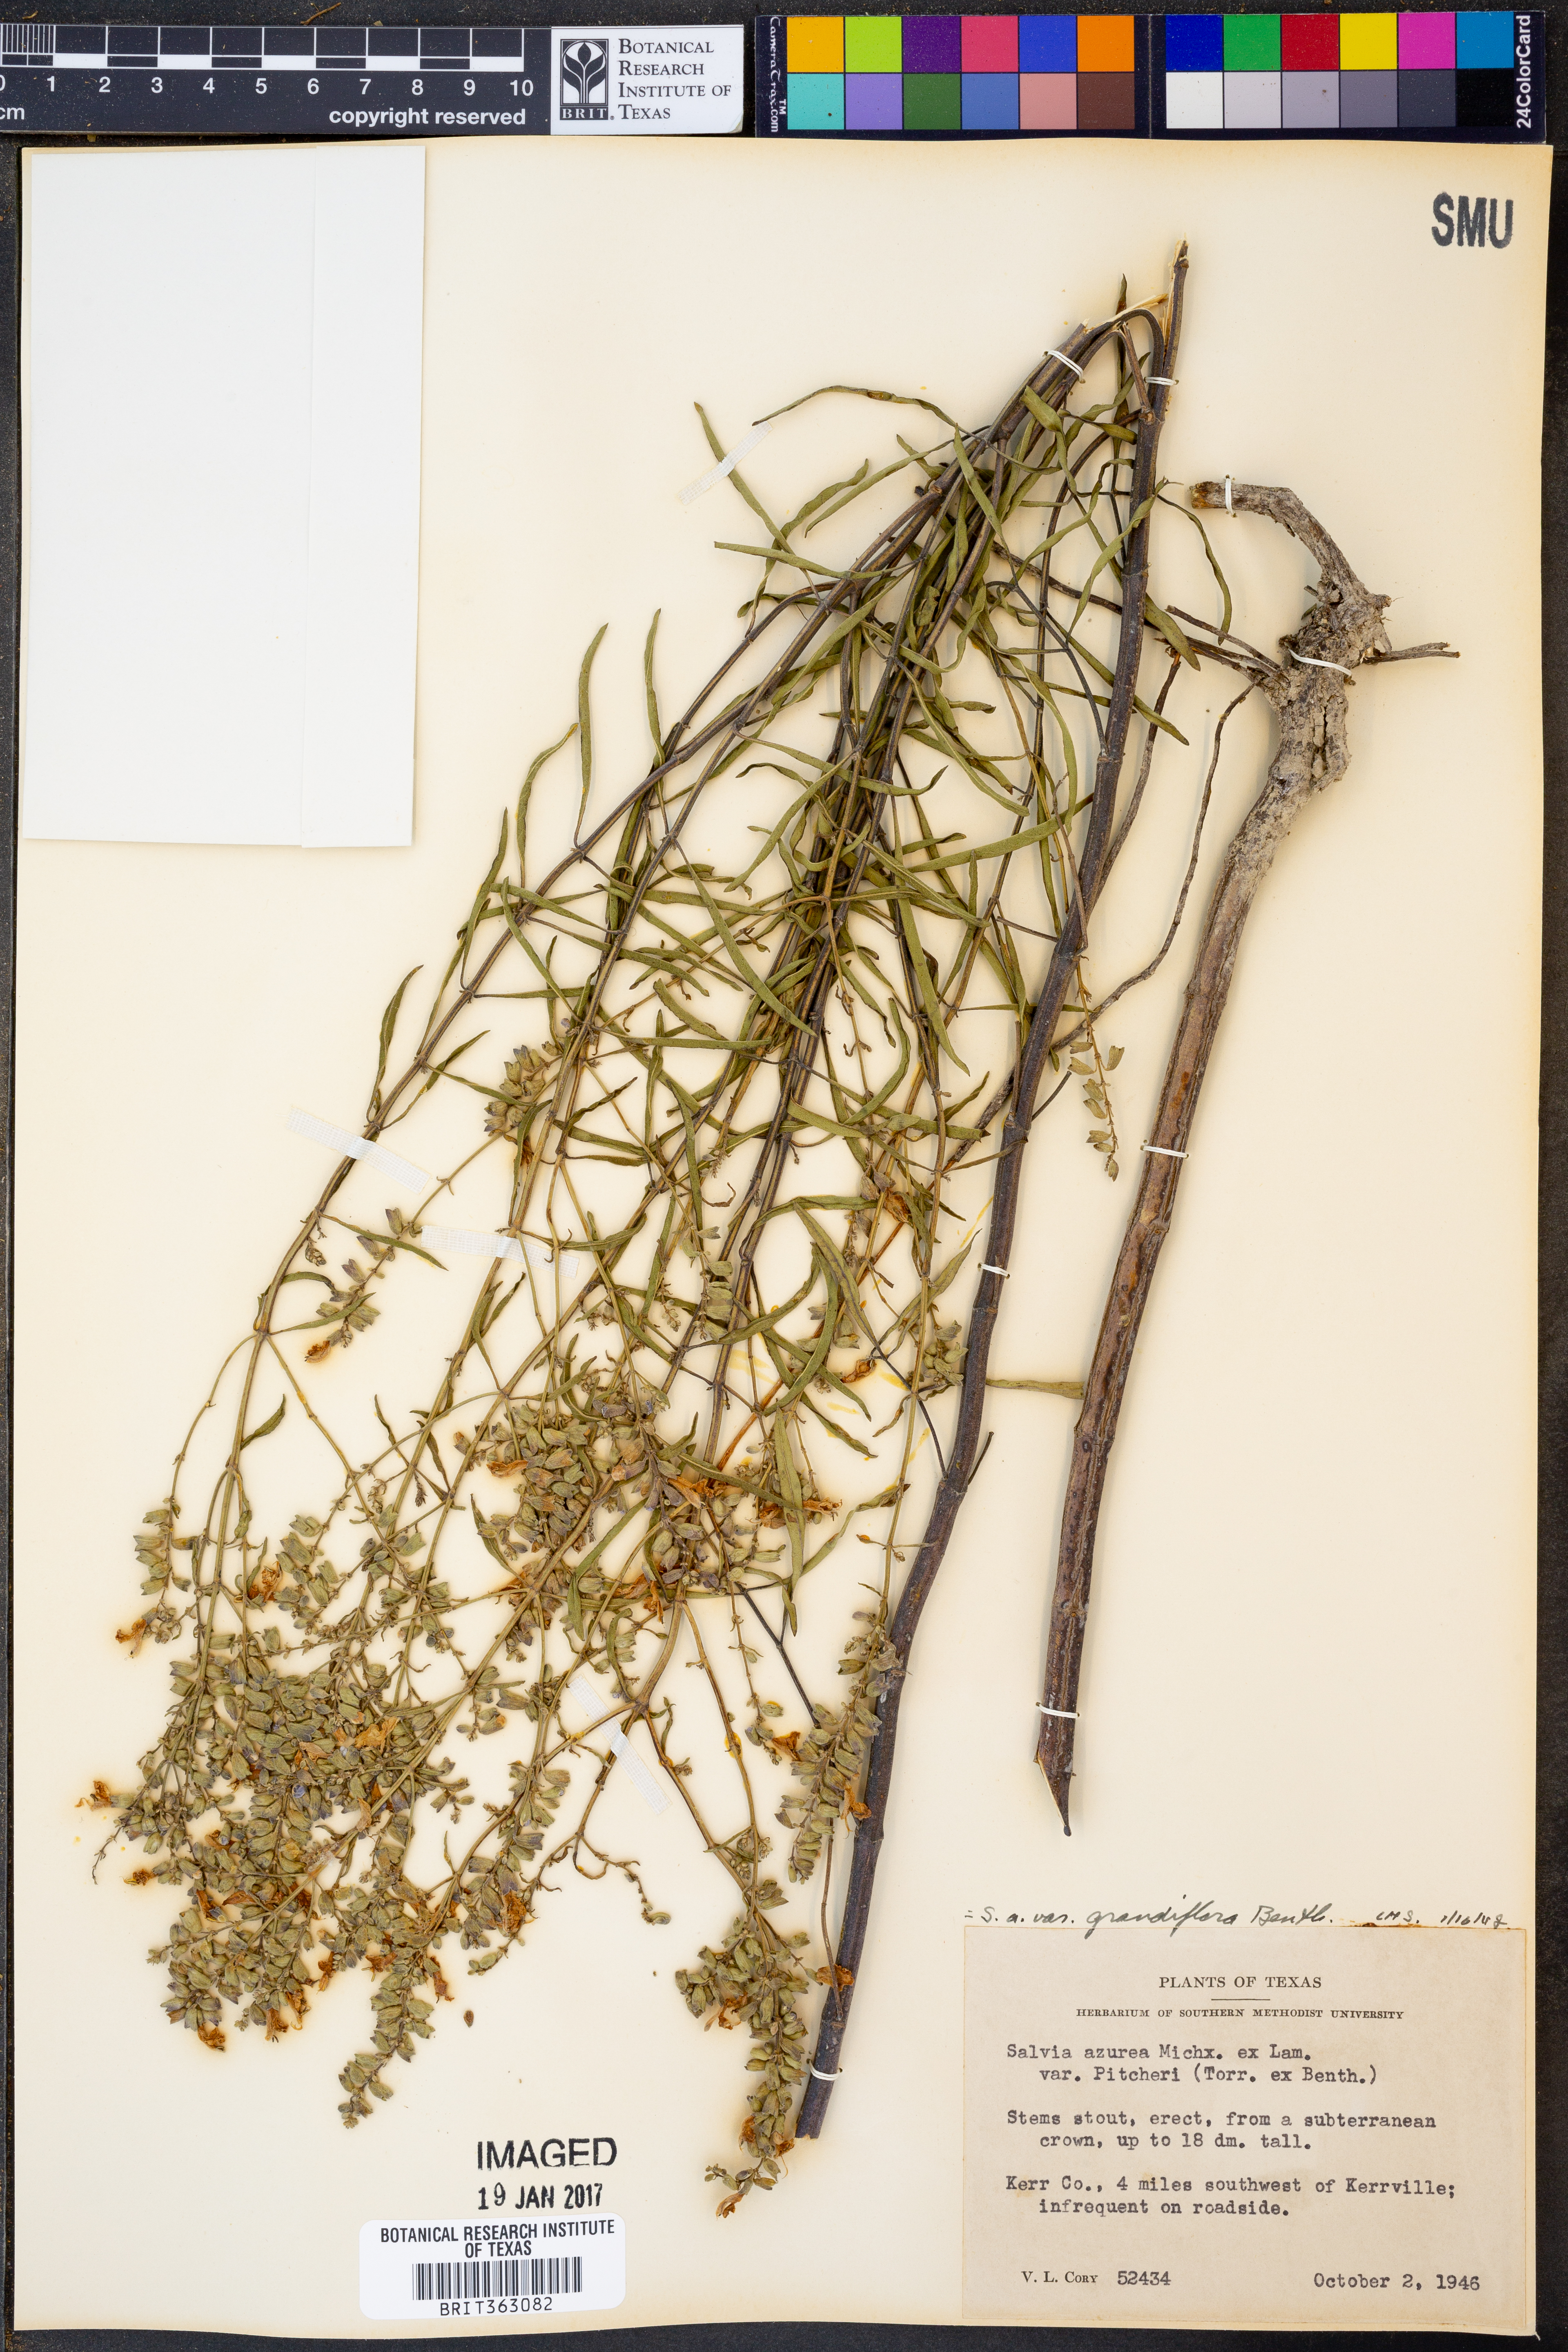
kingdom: Plantae
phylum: Tracheophyta
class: Magnoliopsida
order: Lamiales
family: Lamiaceae
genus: Salvia
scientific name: Salvia azurea
